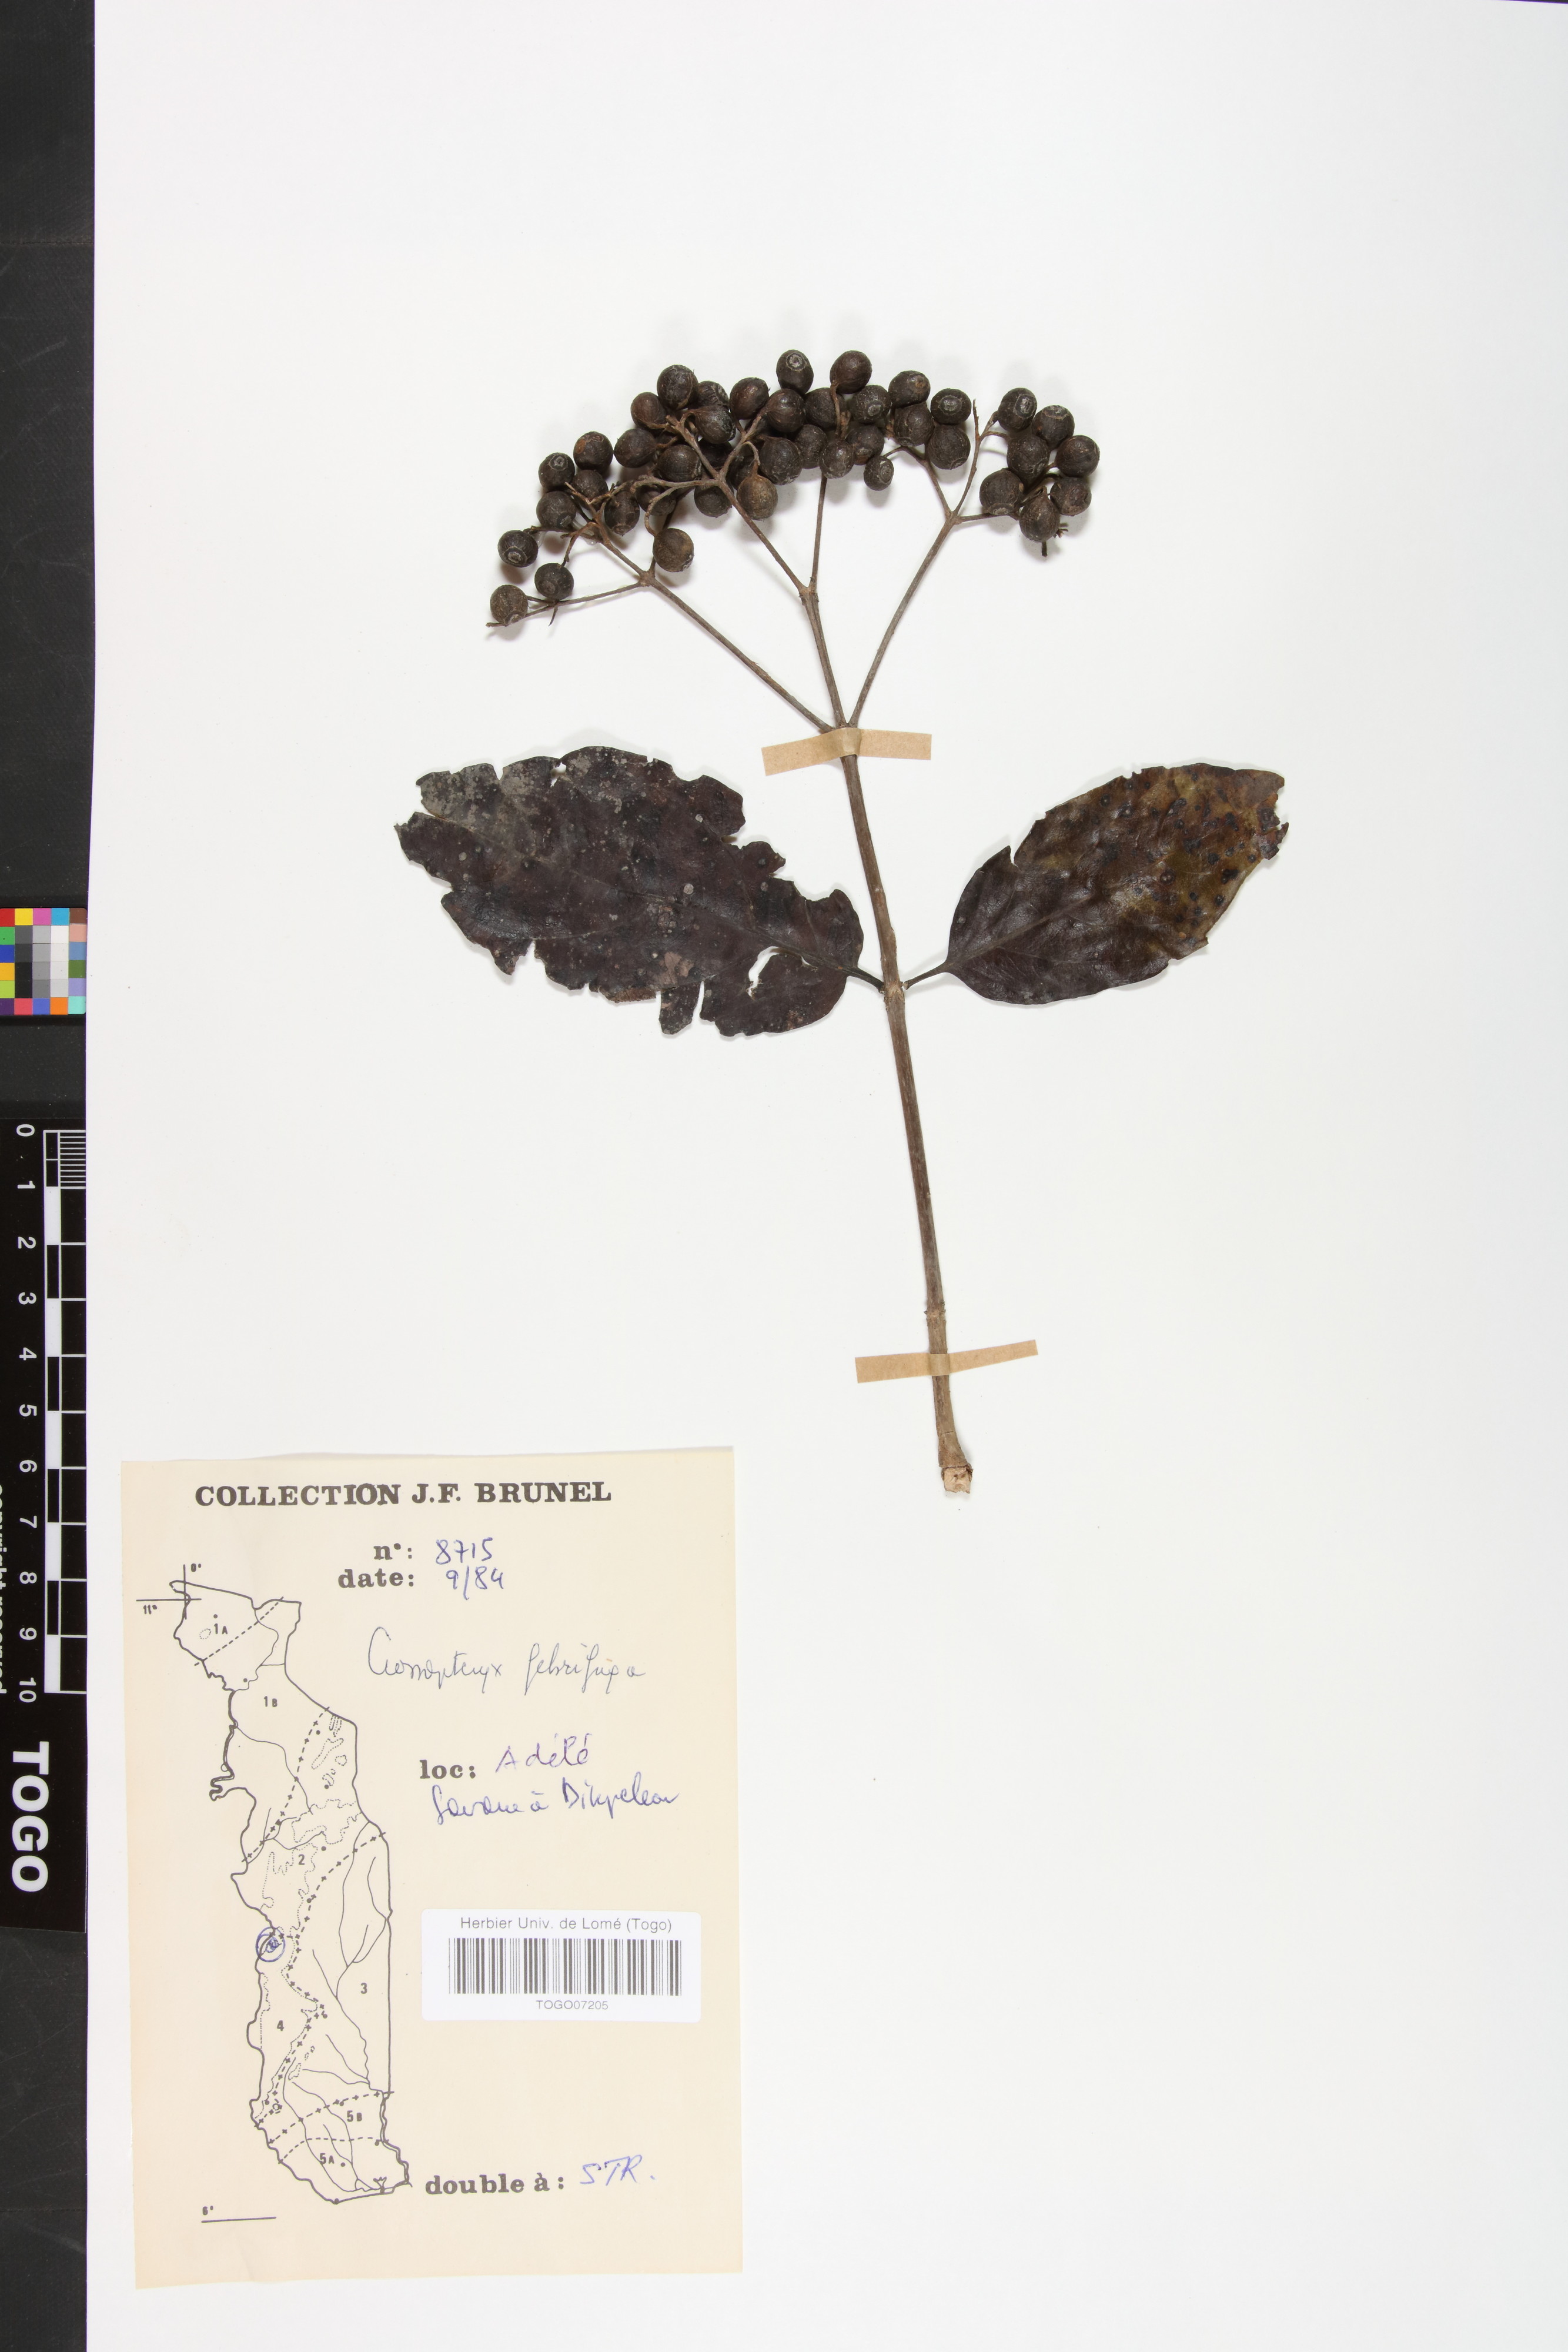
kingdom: Plantae
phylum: Tracheophyta
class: Magnoliopsida
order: Gentianales
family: Rubiaceae
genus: Crossopteryx
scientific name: Crossopteryx febrifuga
